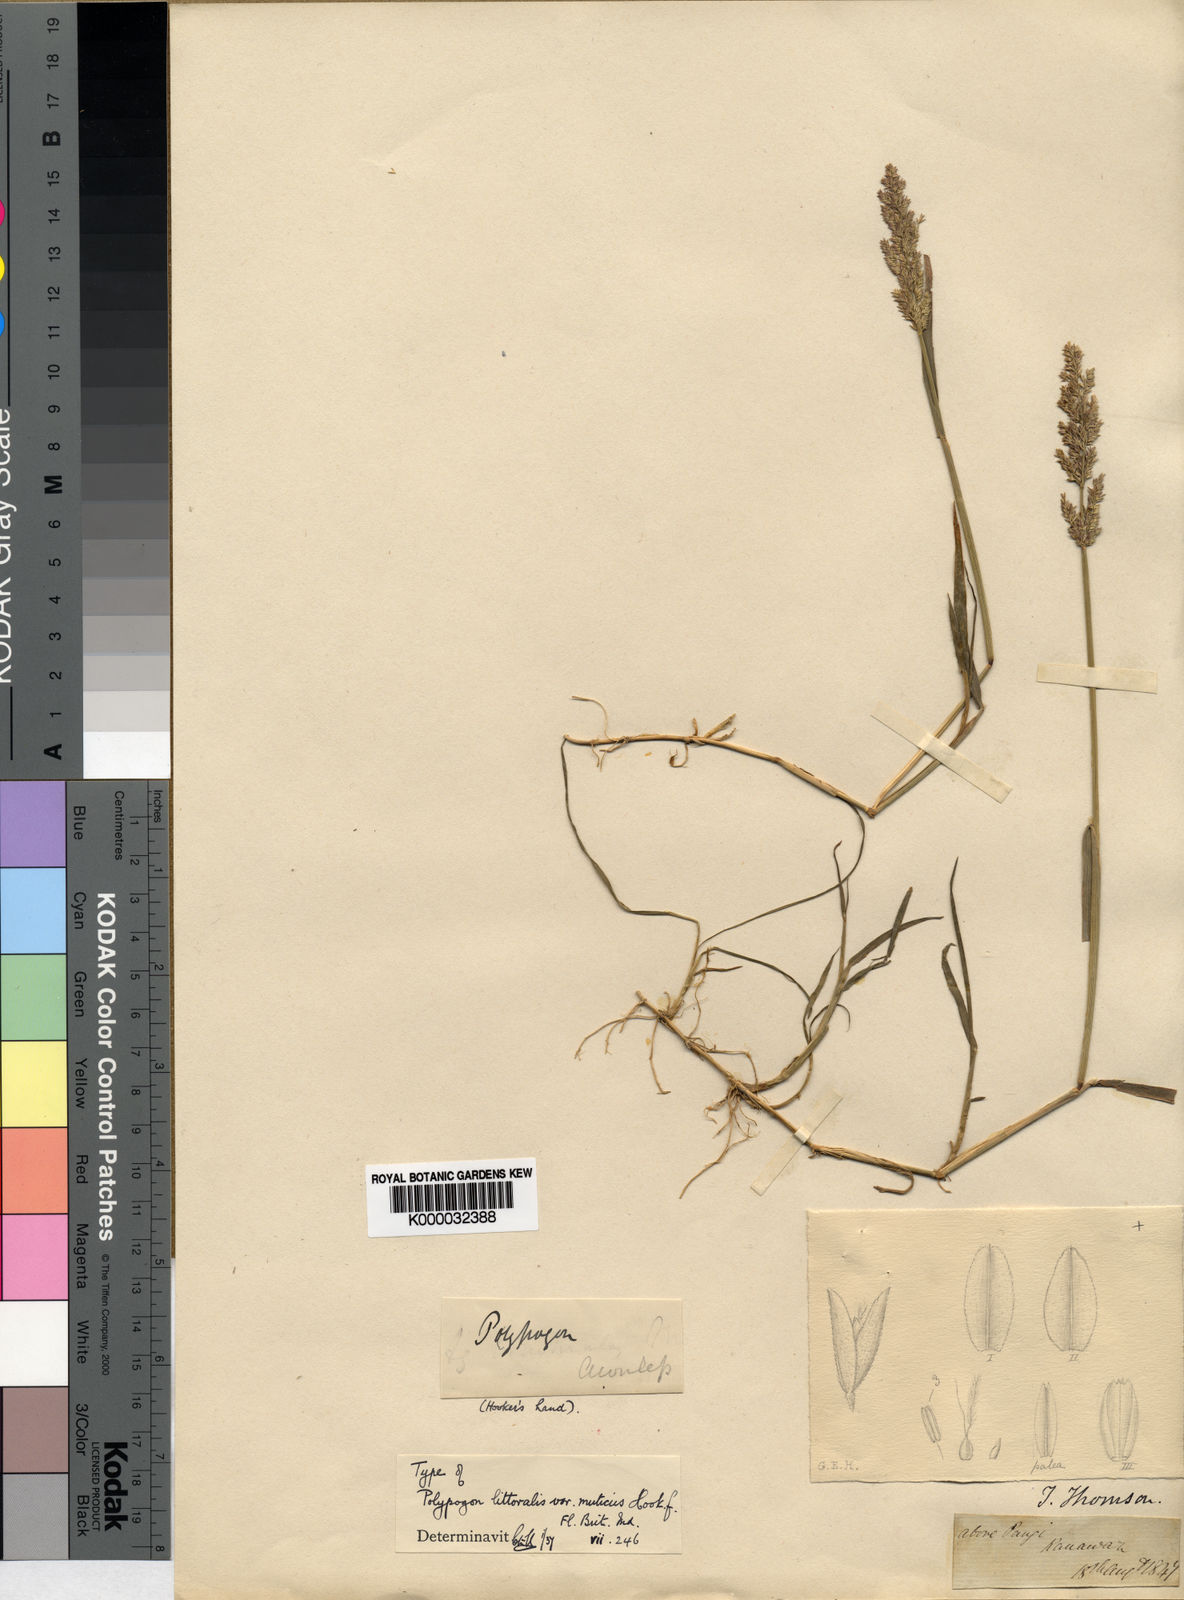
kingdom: Plantae
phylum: Tracheophyta
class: Liliopsida
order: Poales
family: Poaceae
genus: Polypogon
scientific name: Polypogon viridis
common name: Water bent
